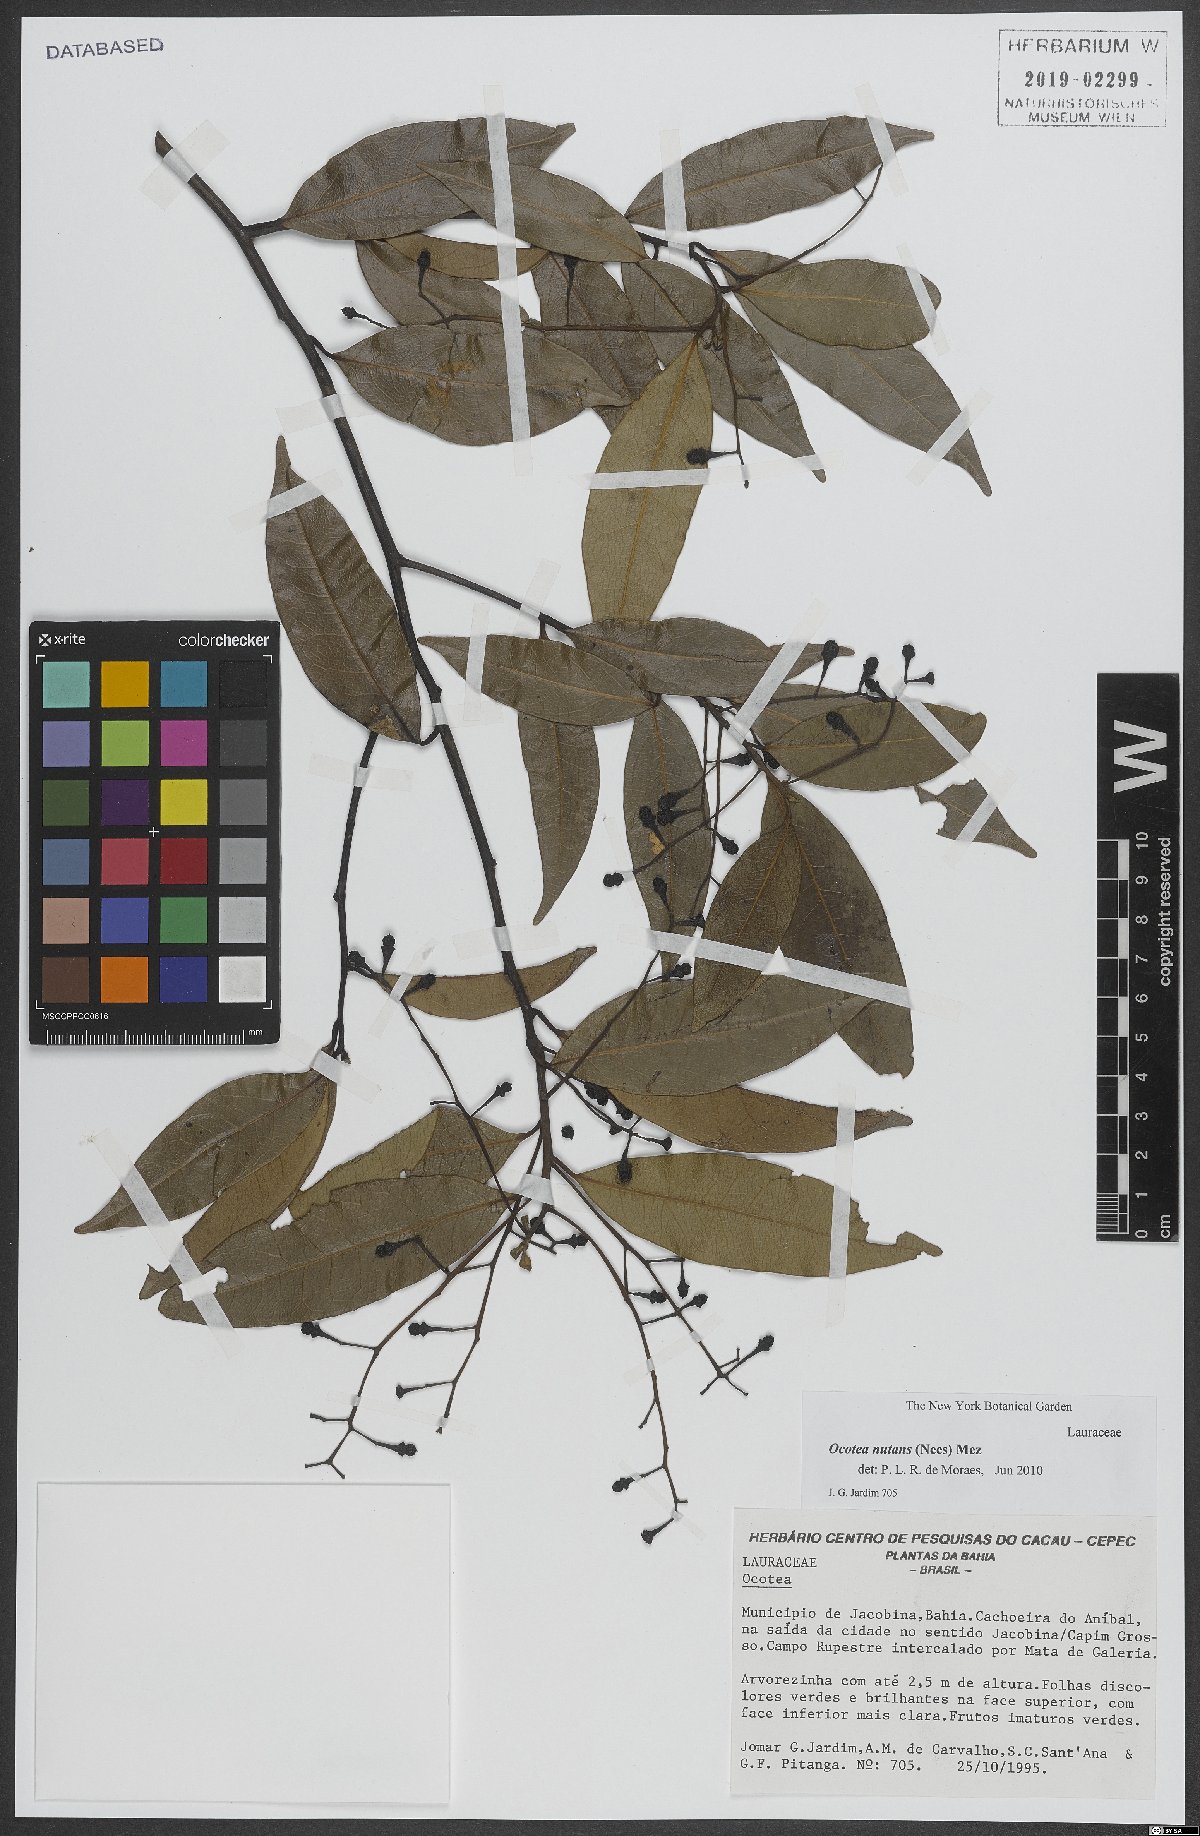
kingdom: Plantae
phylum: Tracheophyta
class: Magnoliopsida
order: Laurales
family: Lauraceae
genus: Mespilodaphne
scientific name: Mespilodaphne nutans
